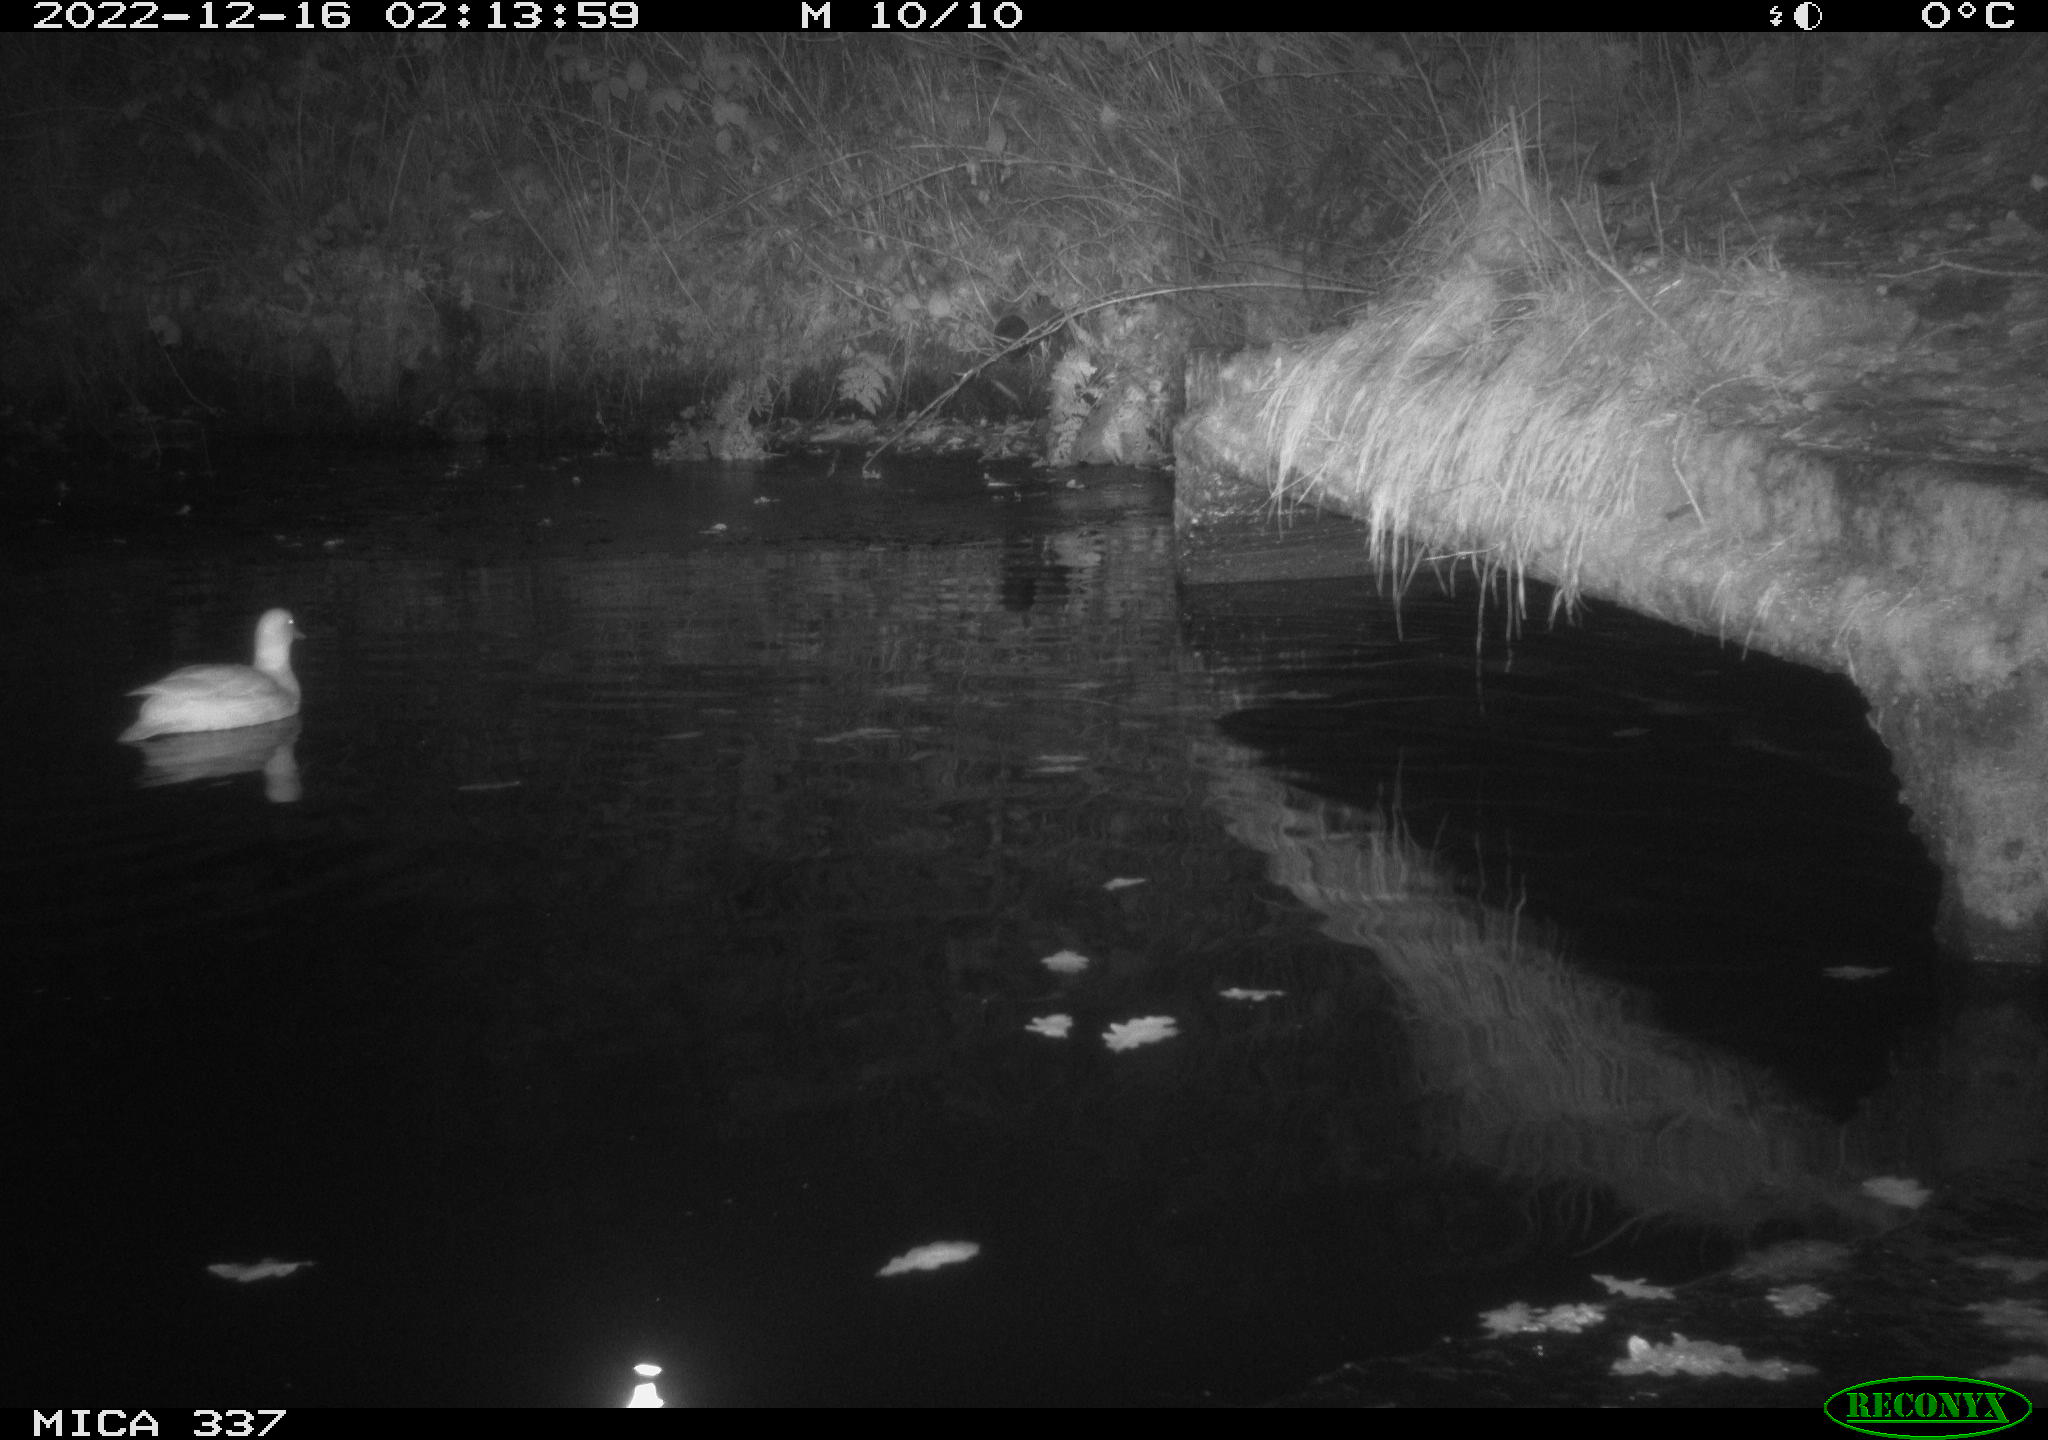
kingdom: Animalia
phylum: Chordata
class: Aves
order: Anseriformes
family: Anatidae
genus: Anas
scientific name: Anas
